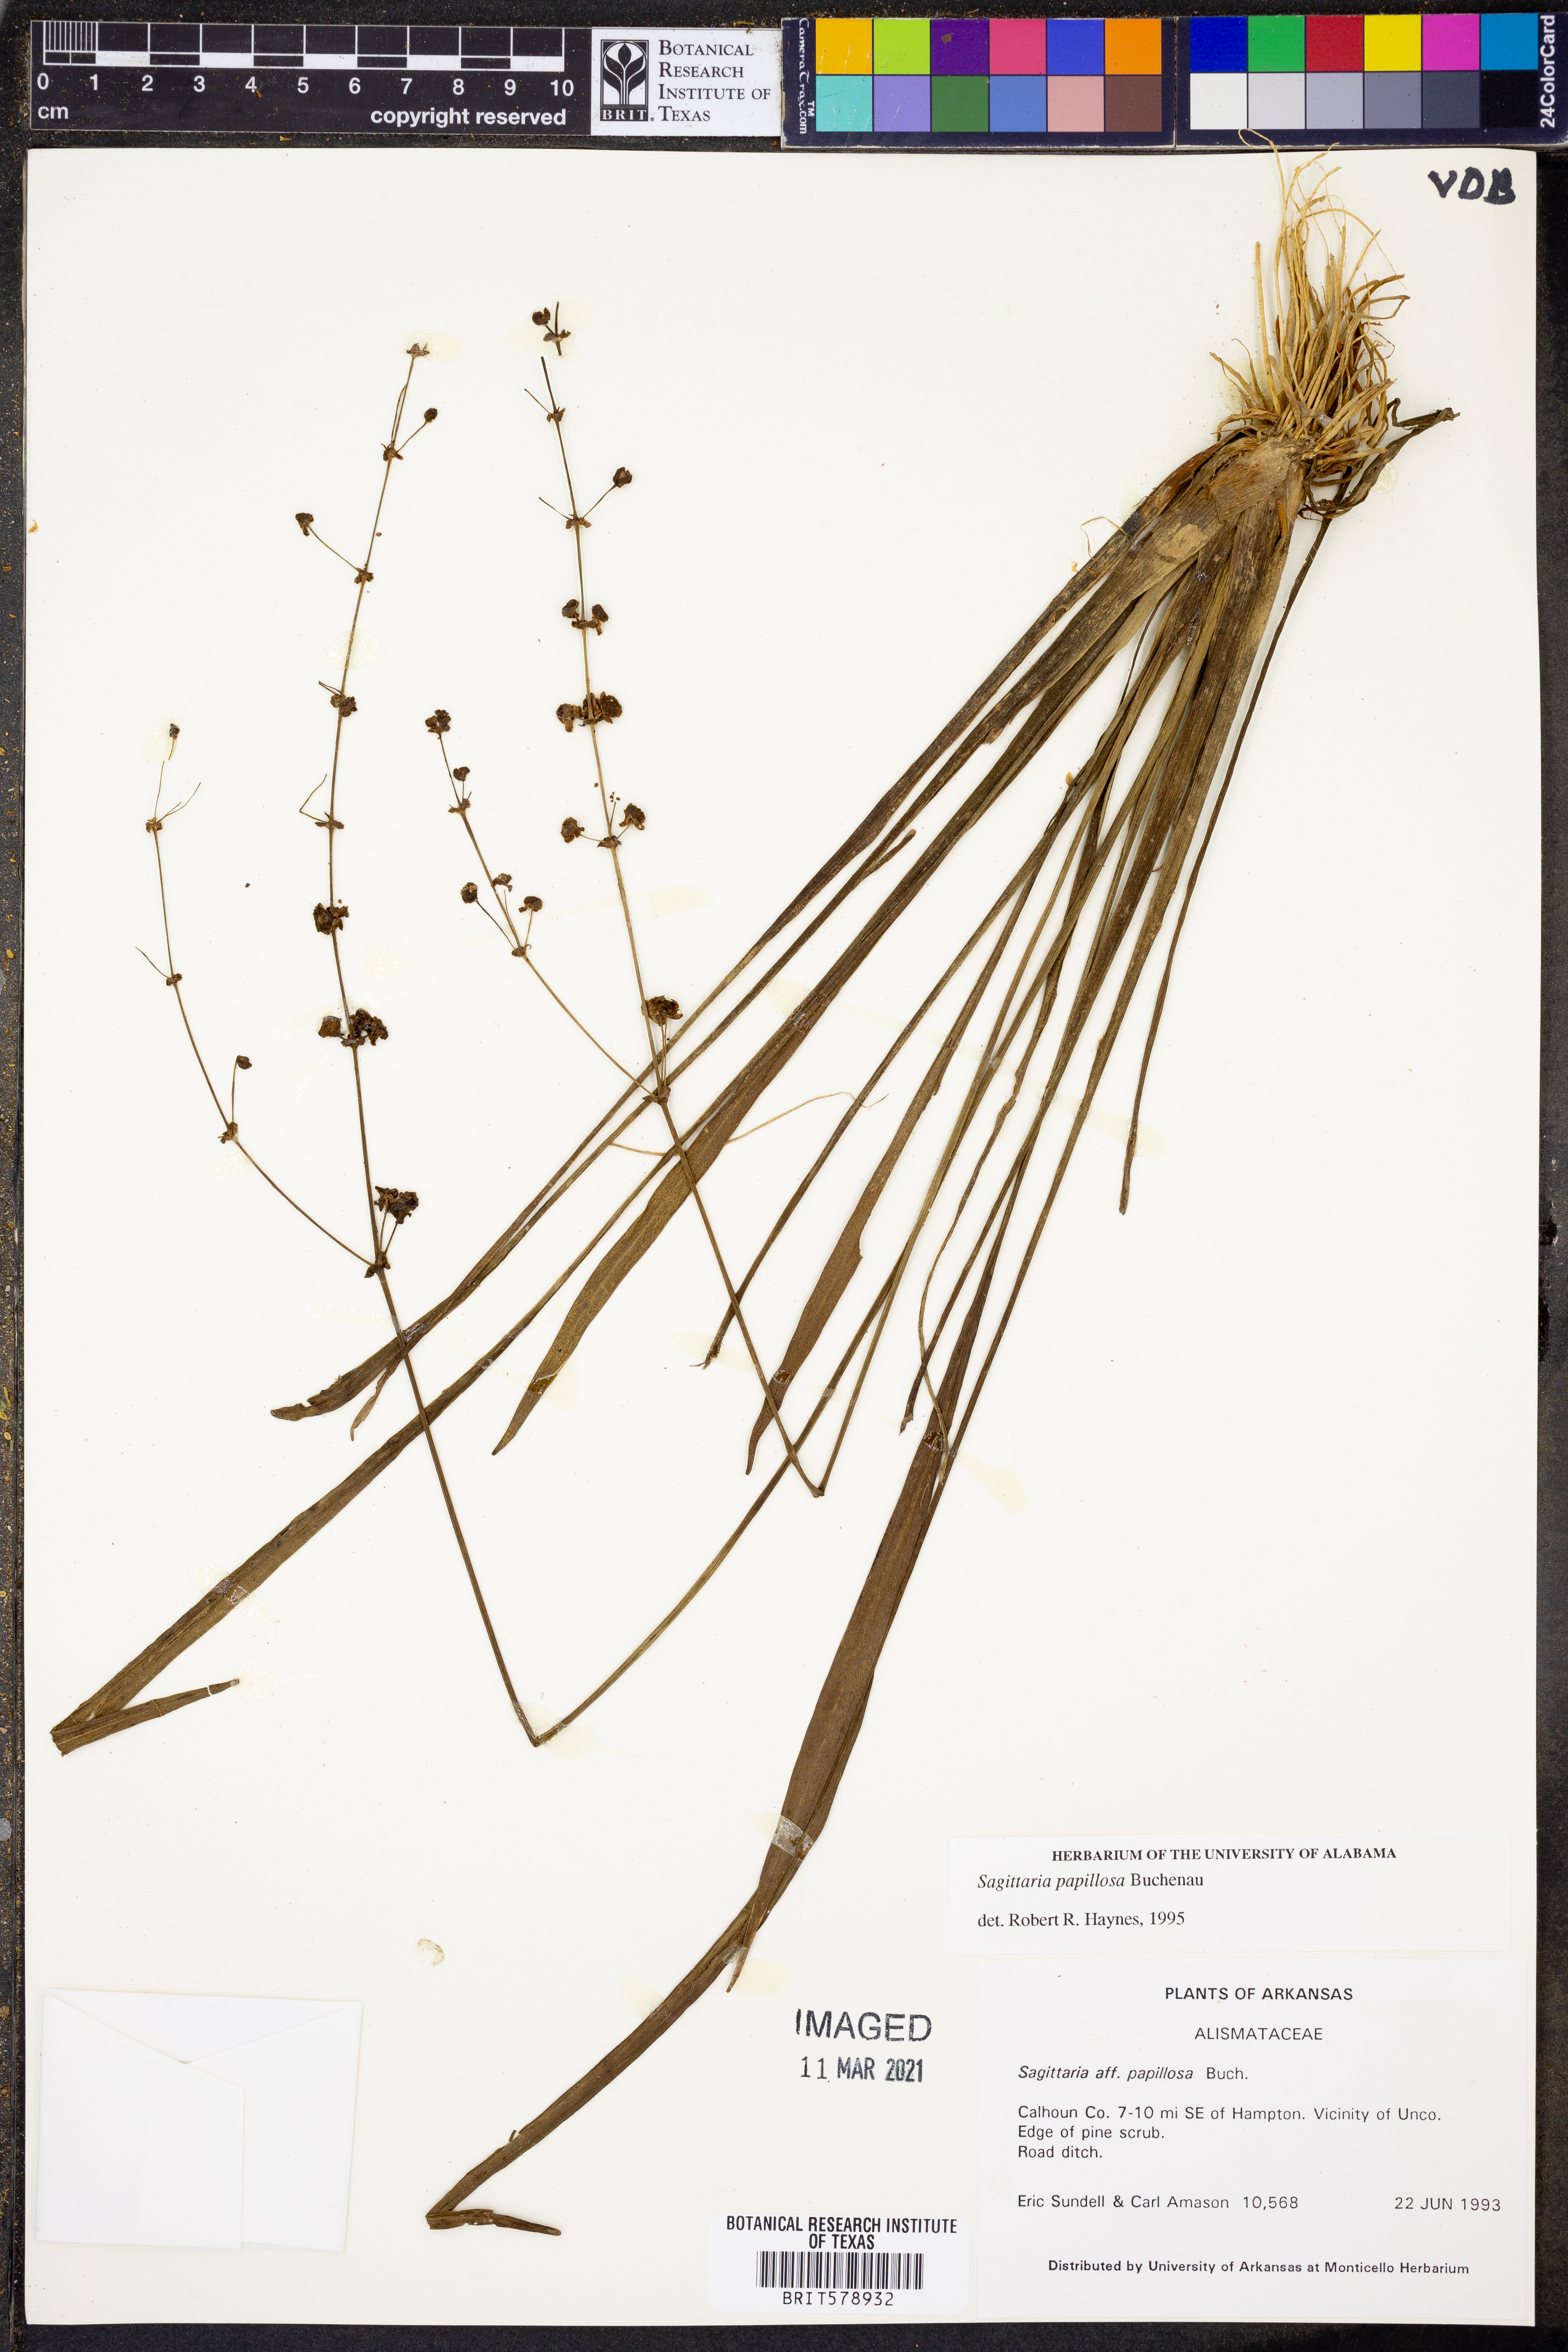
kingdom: Plantae
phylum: Tracheophyta
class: Liliopsida
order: Alismatales
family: Alismataceae
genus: Sagittaria
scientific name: Sagittaria papillosa
